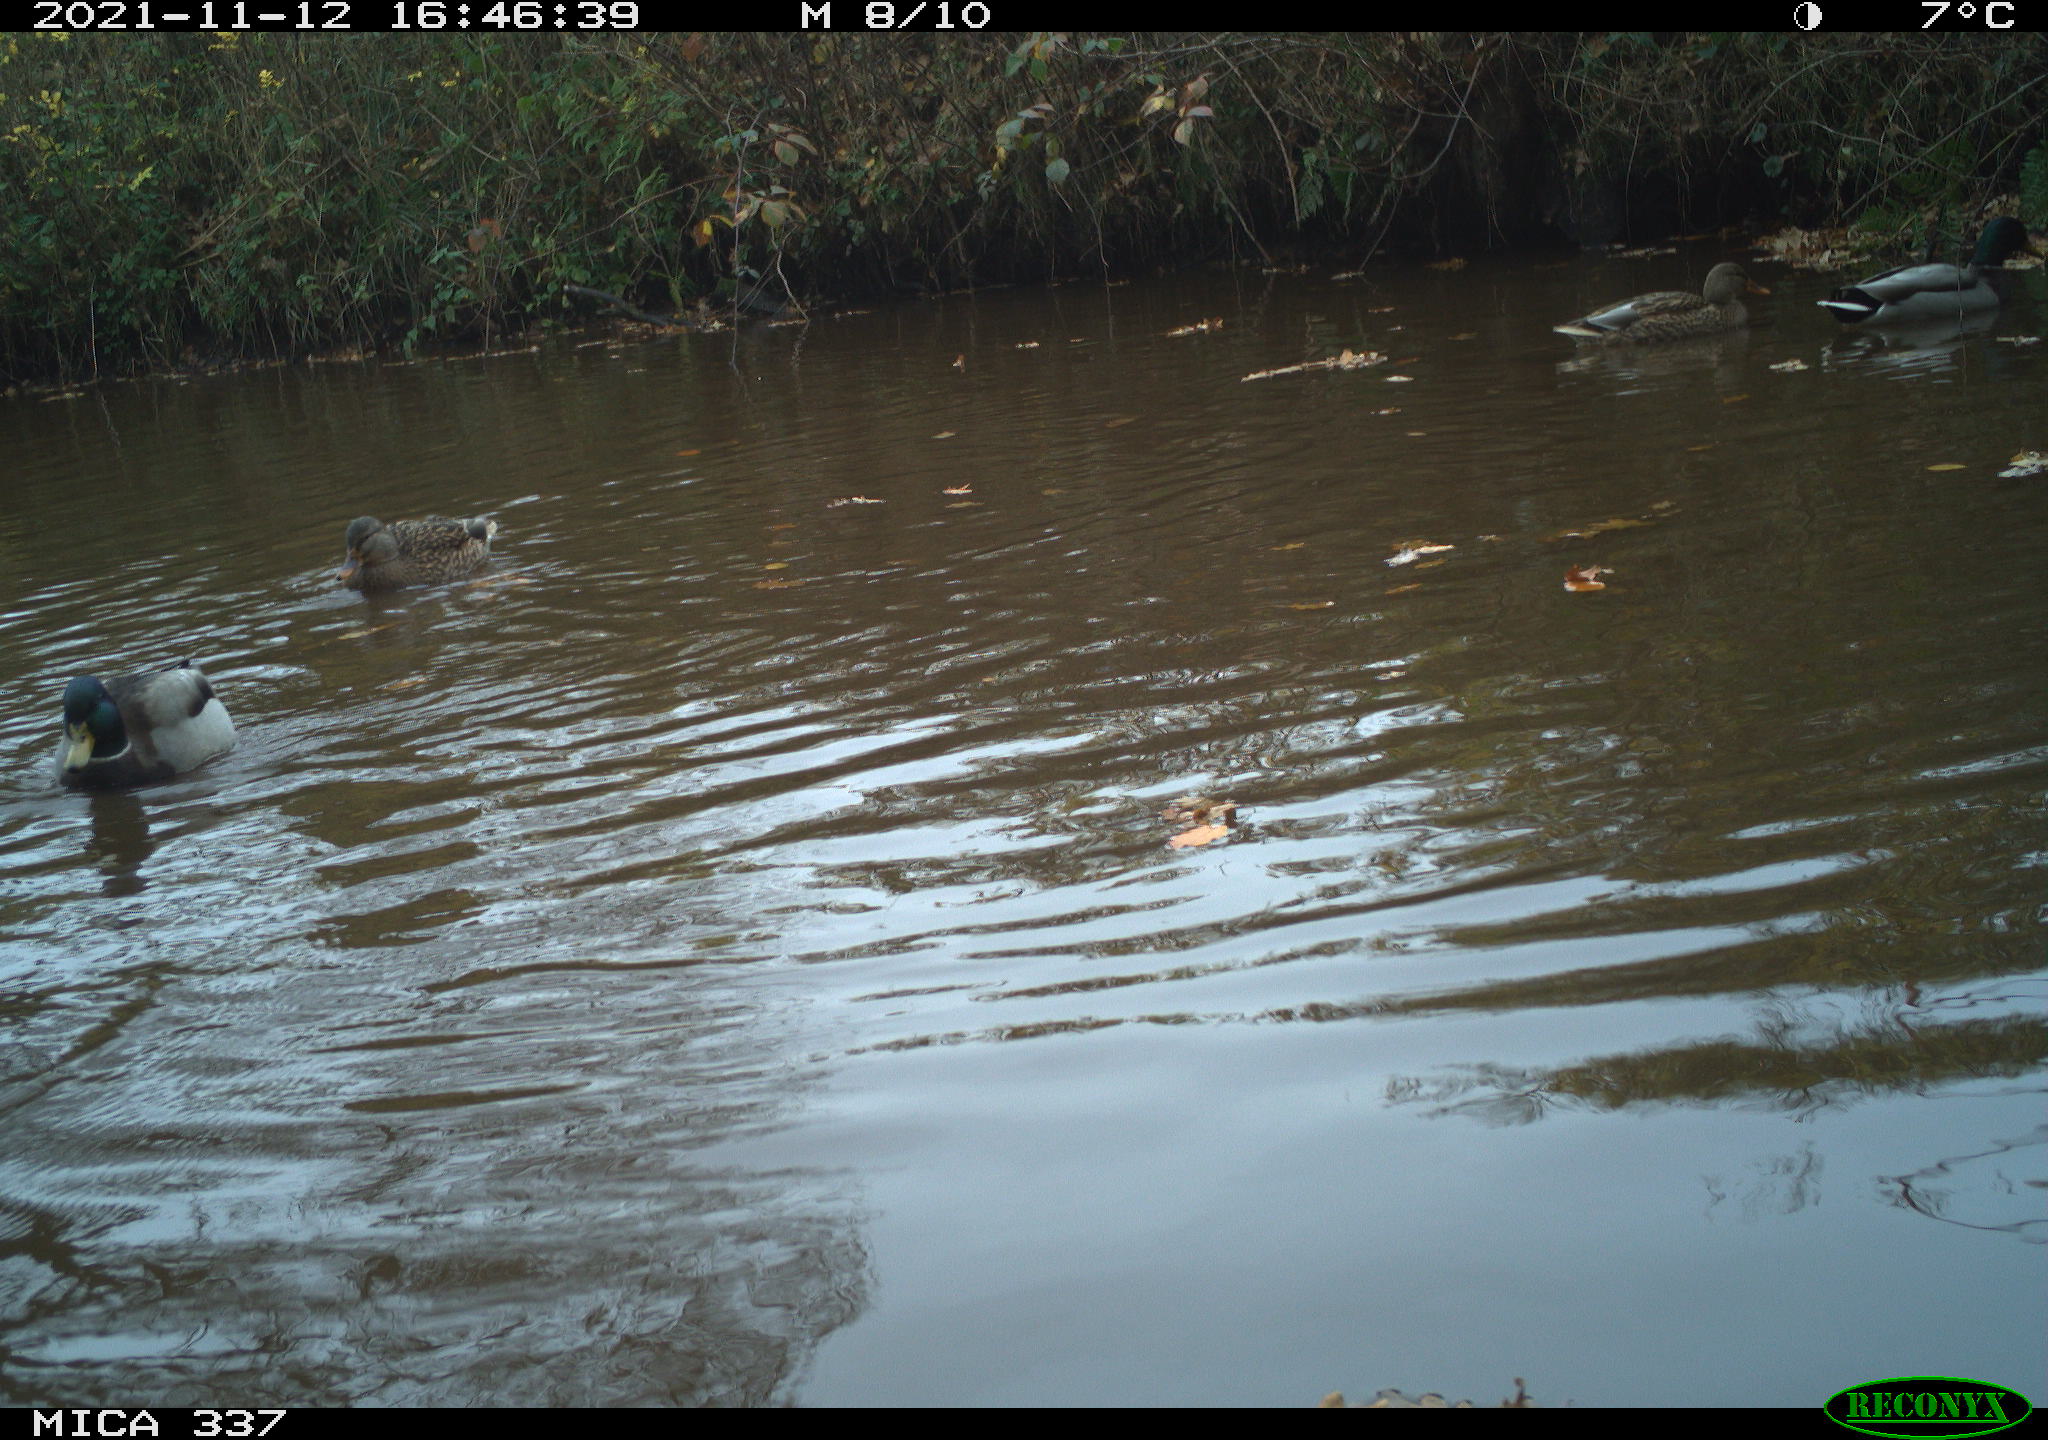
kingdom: Animalia
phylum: Chordata
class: Aves
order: Anseriformes
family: Anatidae
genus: Anas
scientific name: Anas platyrhynchos
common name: Mallard
